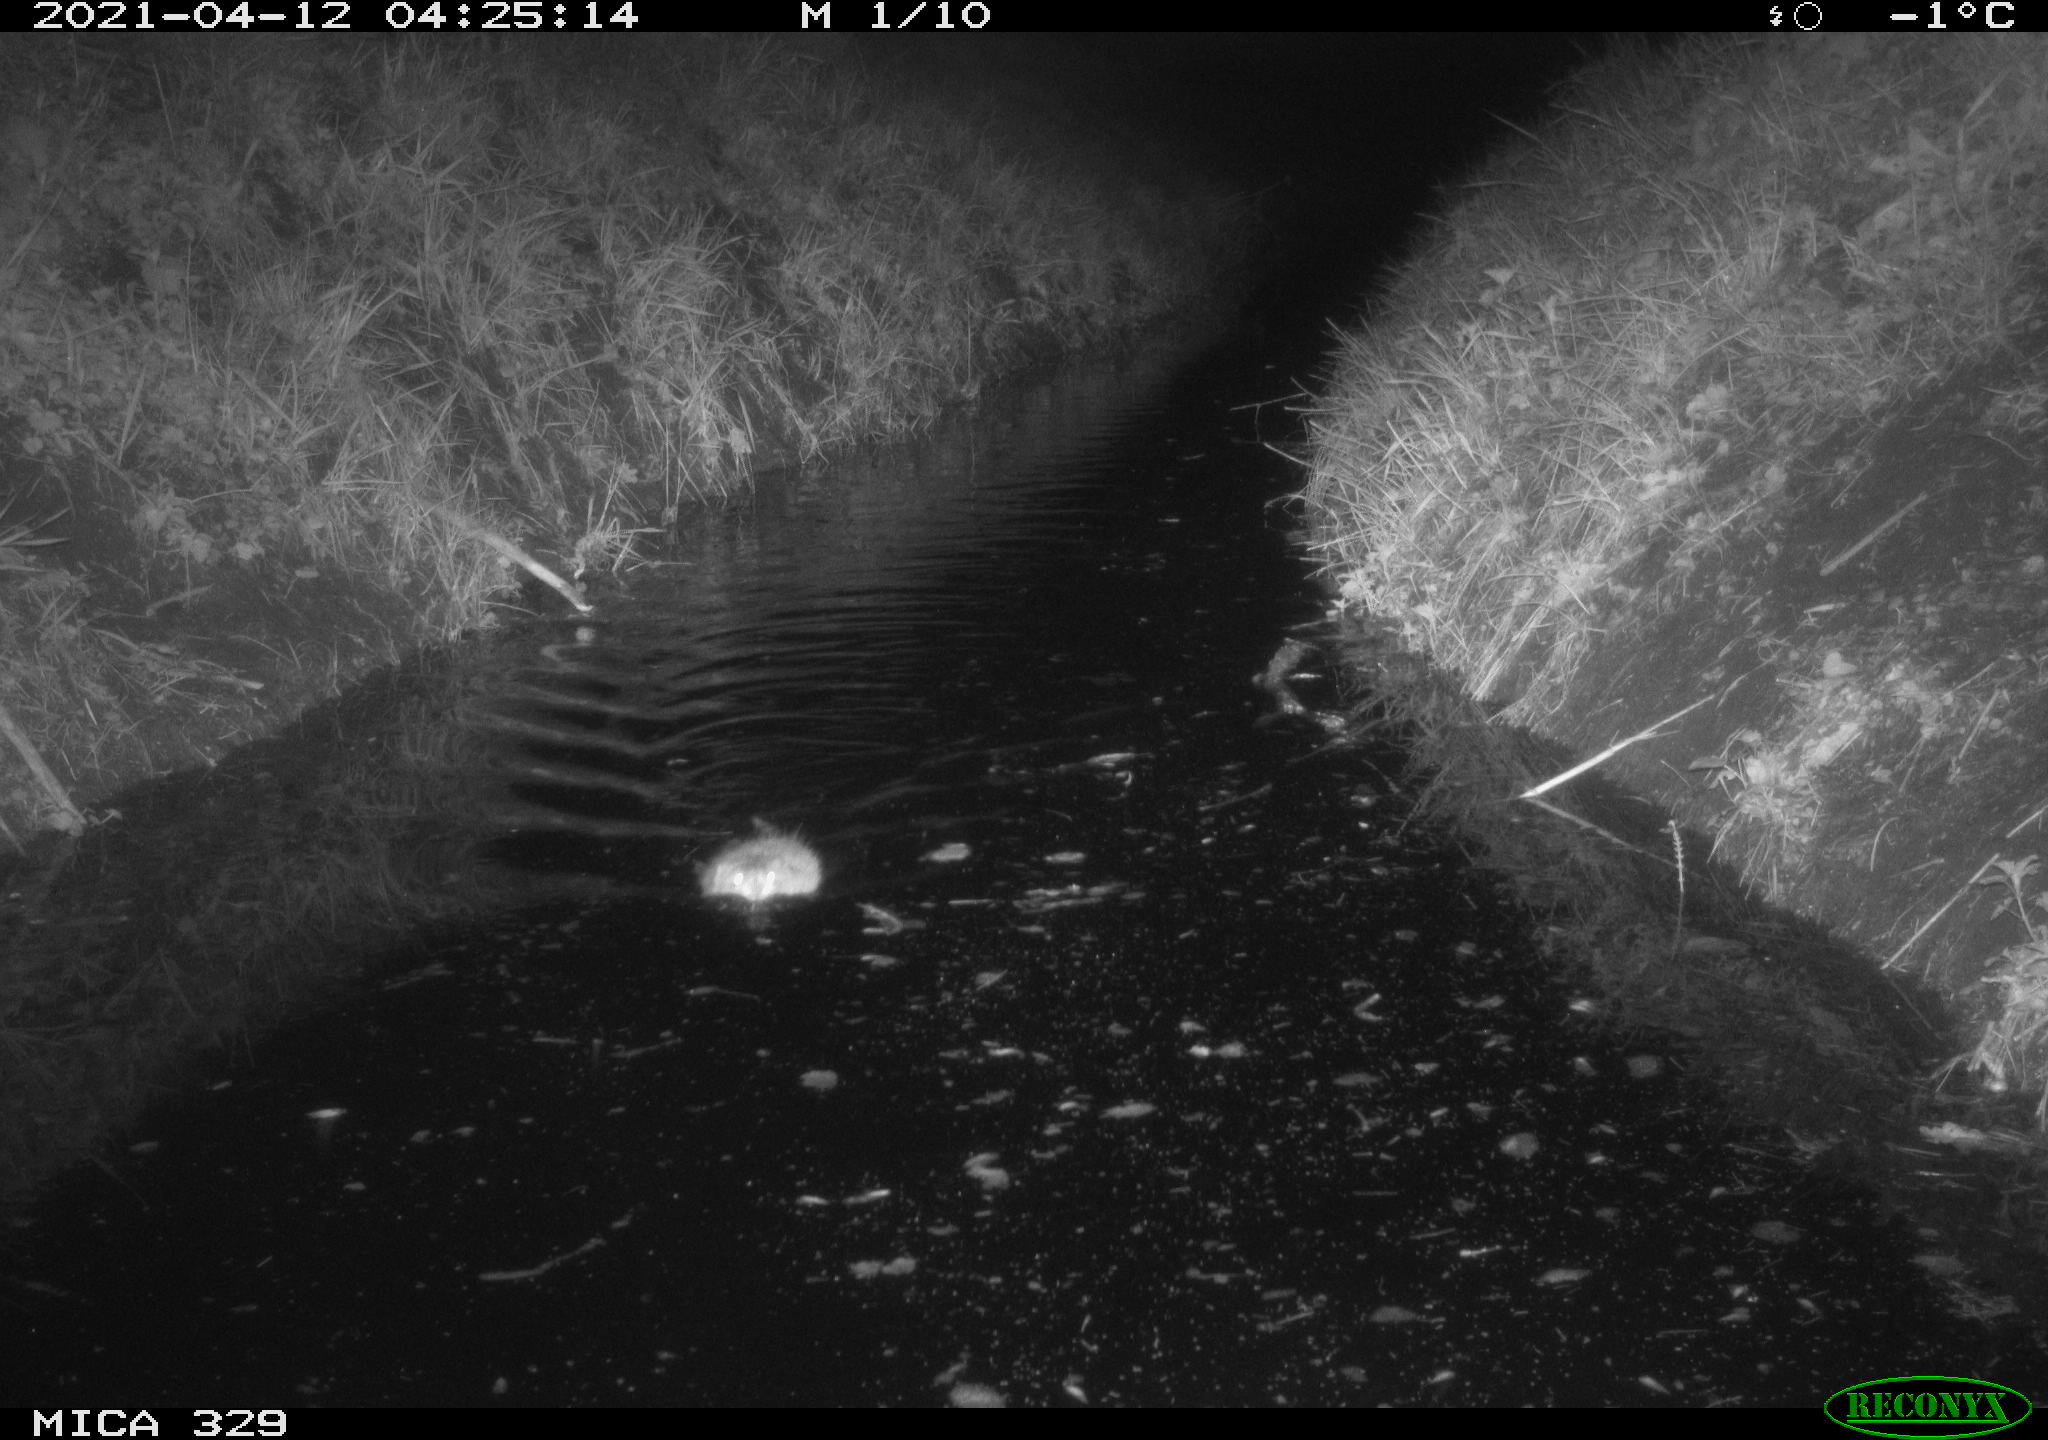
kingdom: Animalia
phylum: Chordata
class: Mammalia
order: Rodentia
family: Cricetidae
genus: Ondatra
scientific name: Ondatra zibethicus
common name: Muskrat
